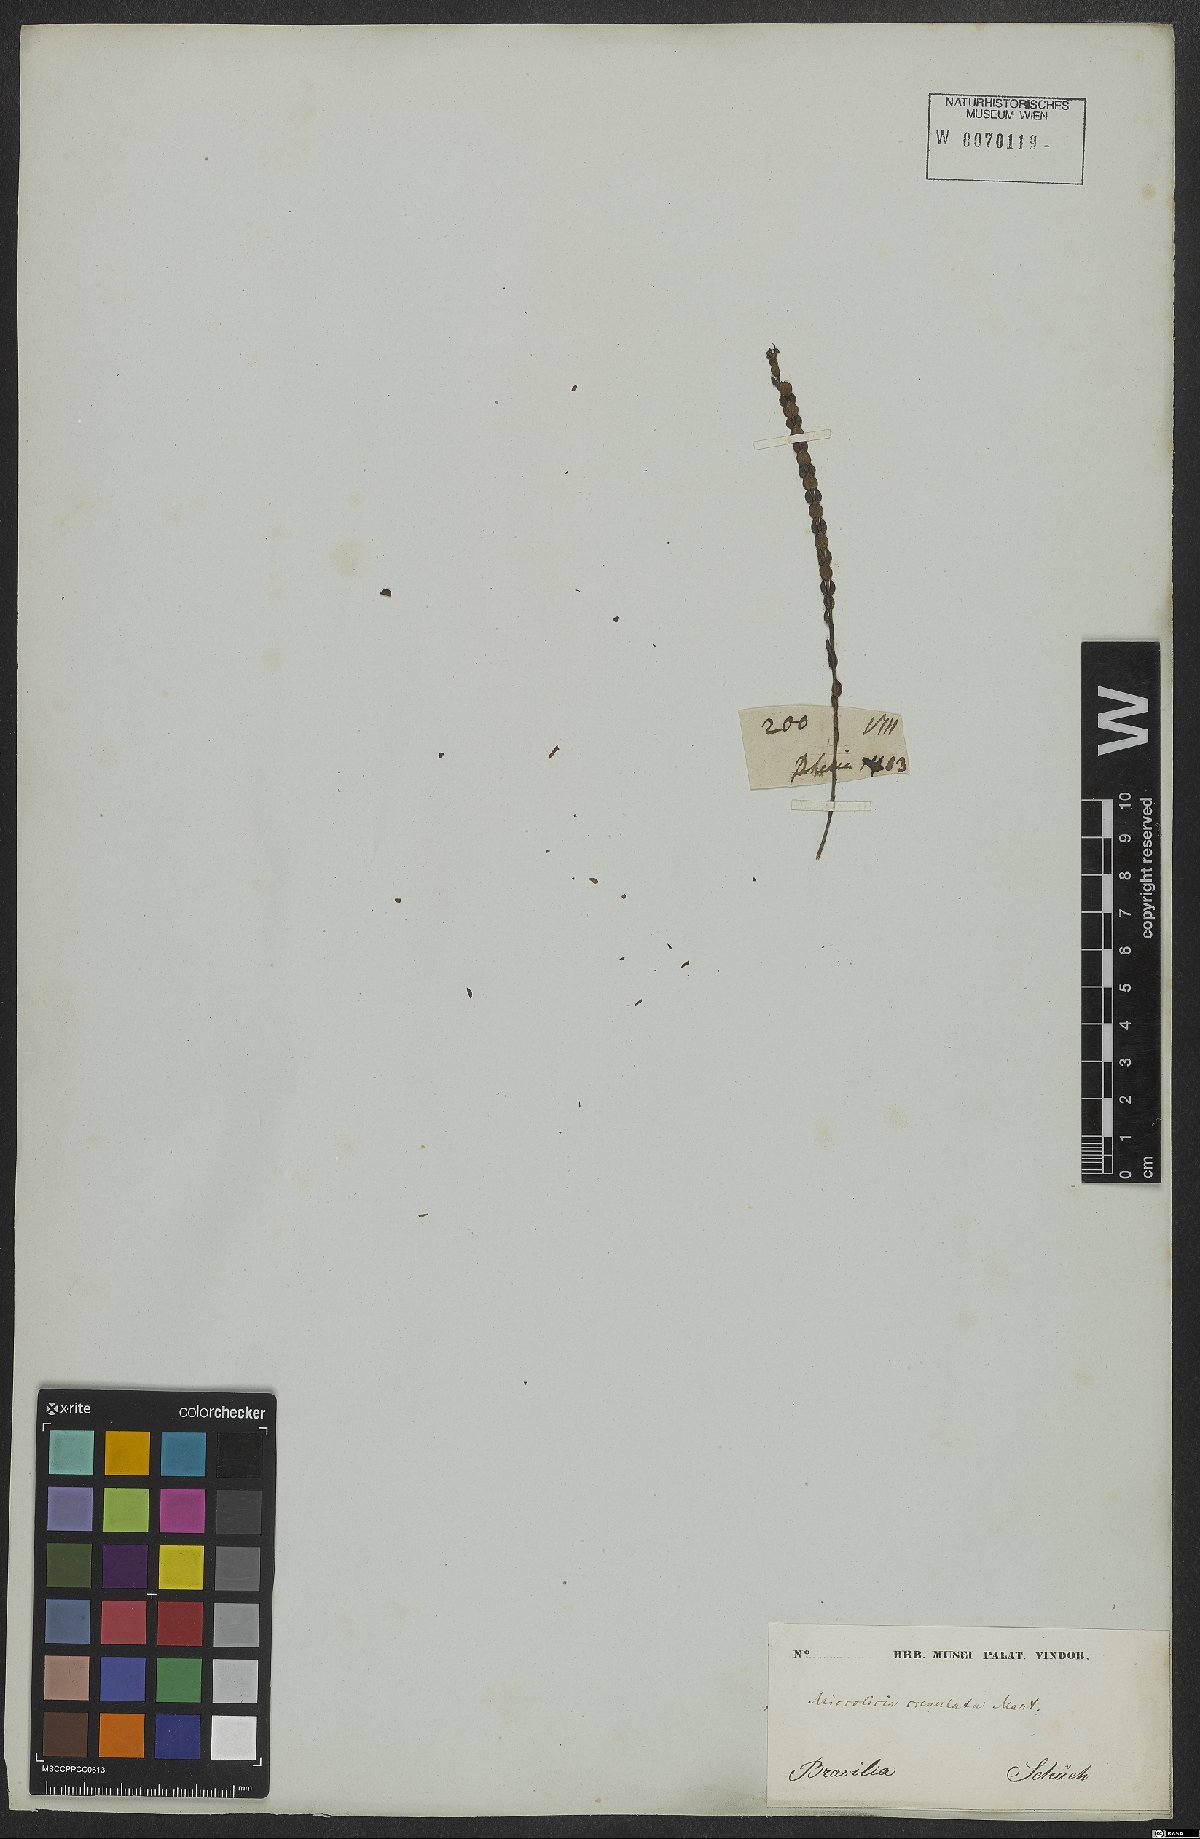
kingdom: Plantae
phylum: Tracheophyta
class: Magnoliopsida
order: Myrtales
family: Melastomataceae
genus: Microlicia
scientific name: Microlicia crenulata
